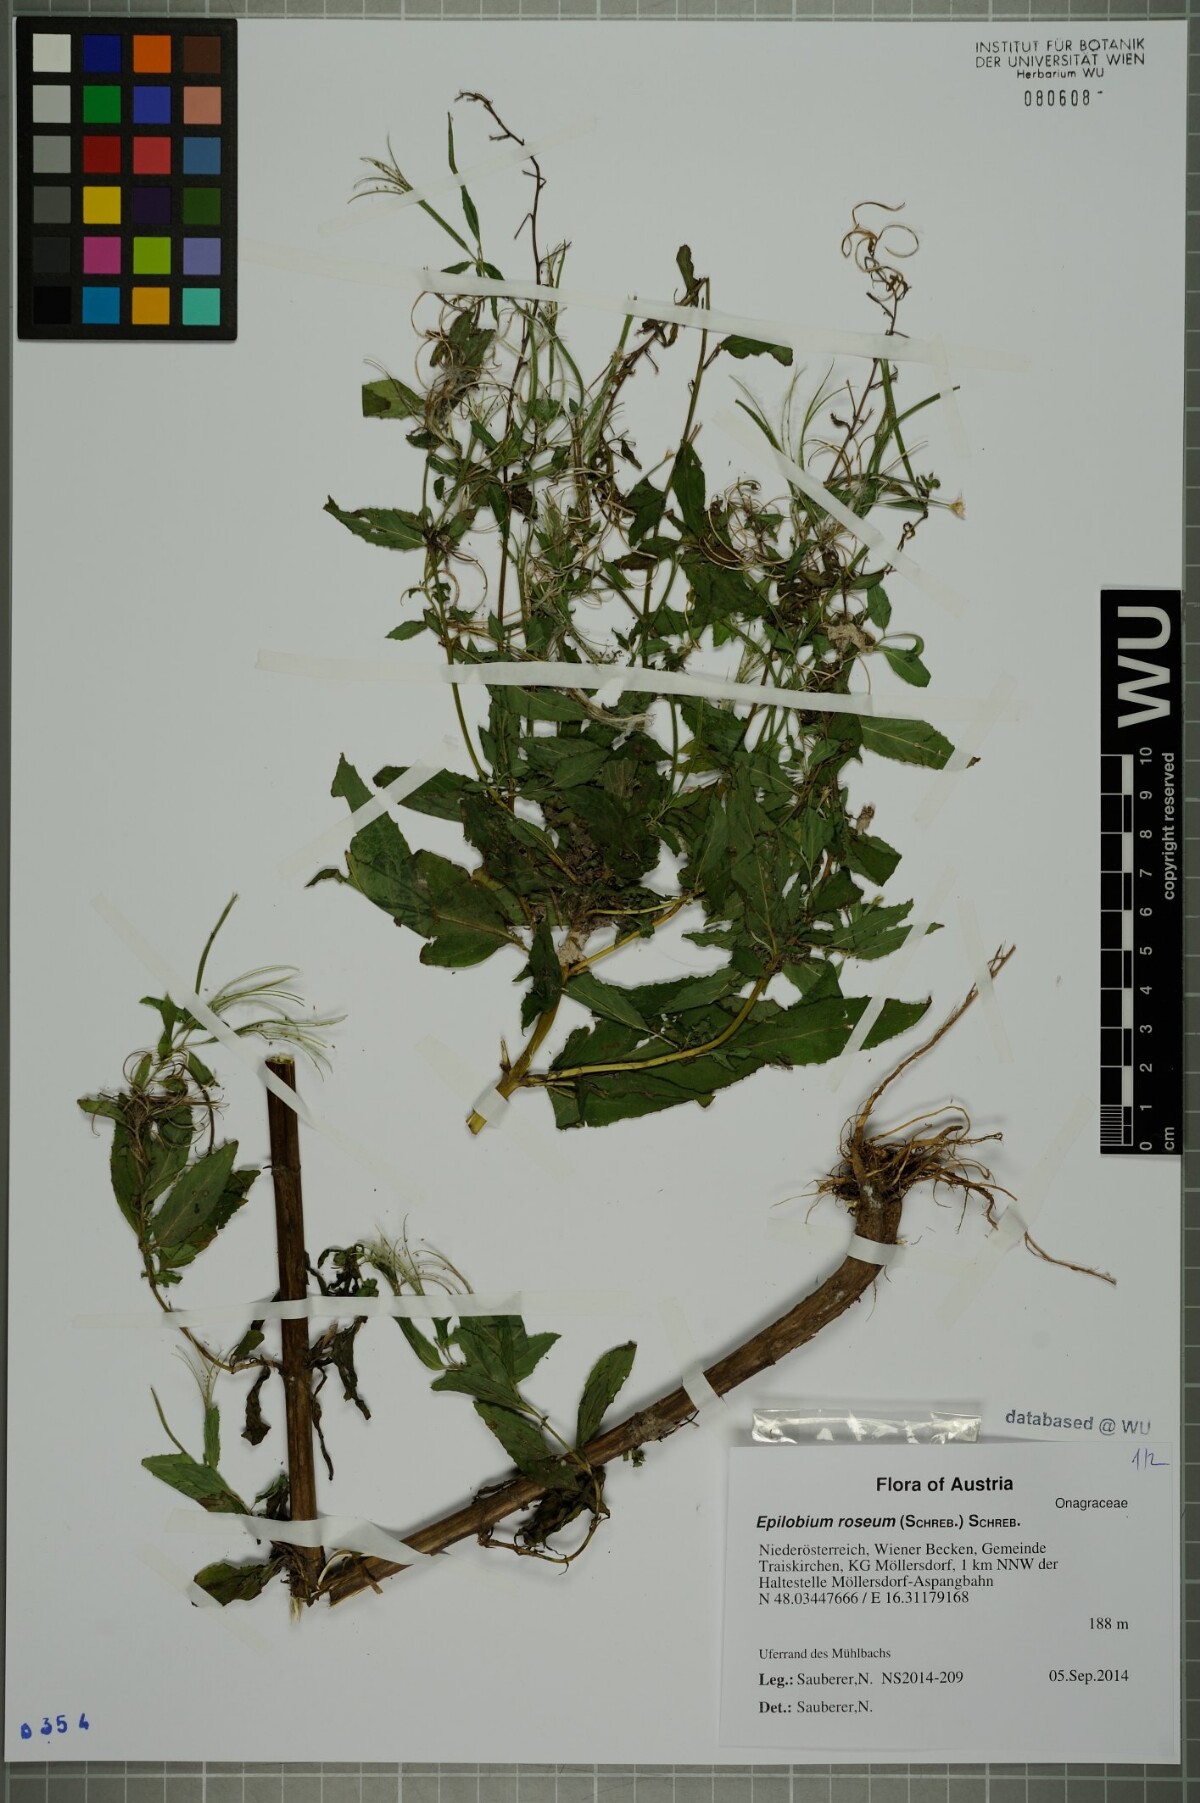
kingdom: Plantae
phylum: Tracheophyta
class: Magnoliopsida
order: Myrtales
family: Onagraceae
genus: Epilobium
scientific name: Epilobium roseum
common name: Pale willowherb
